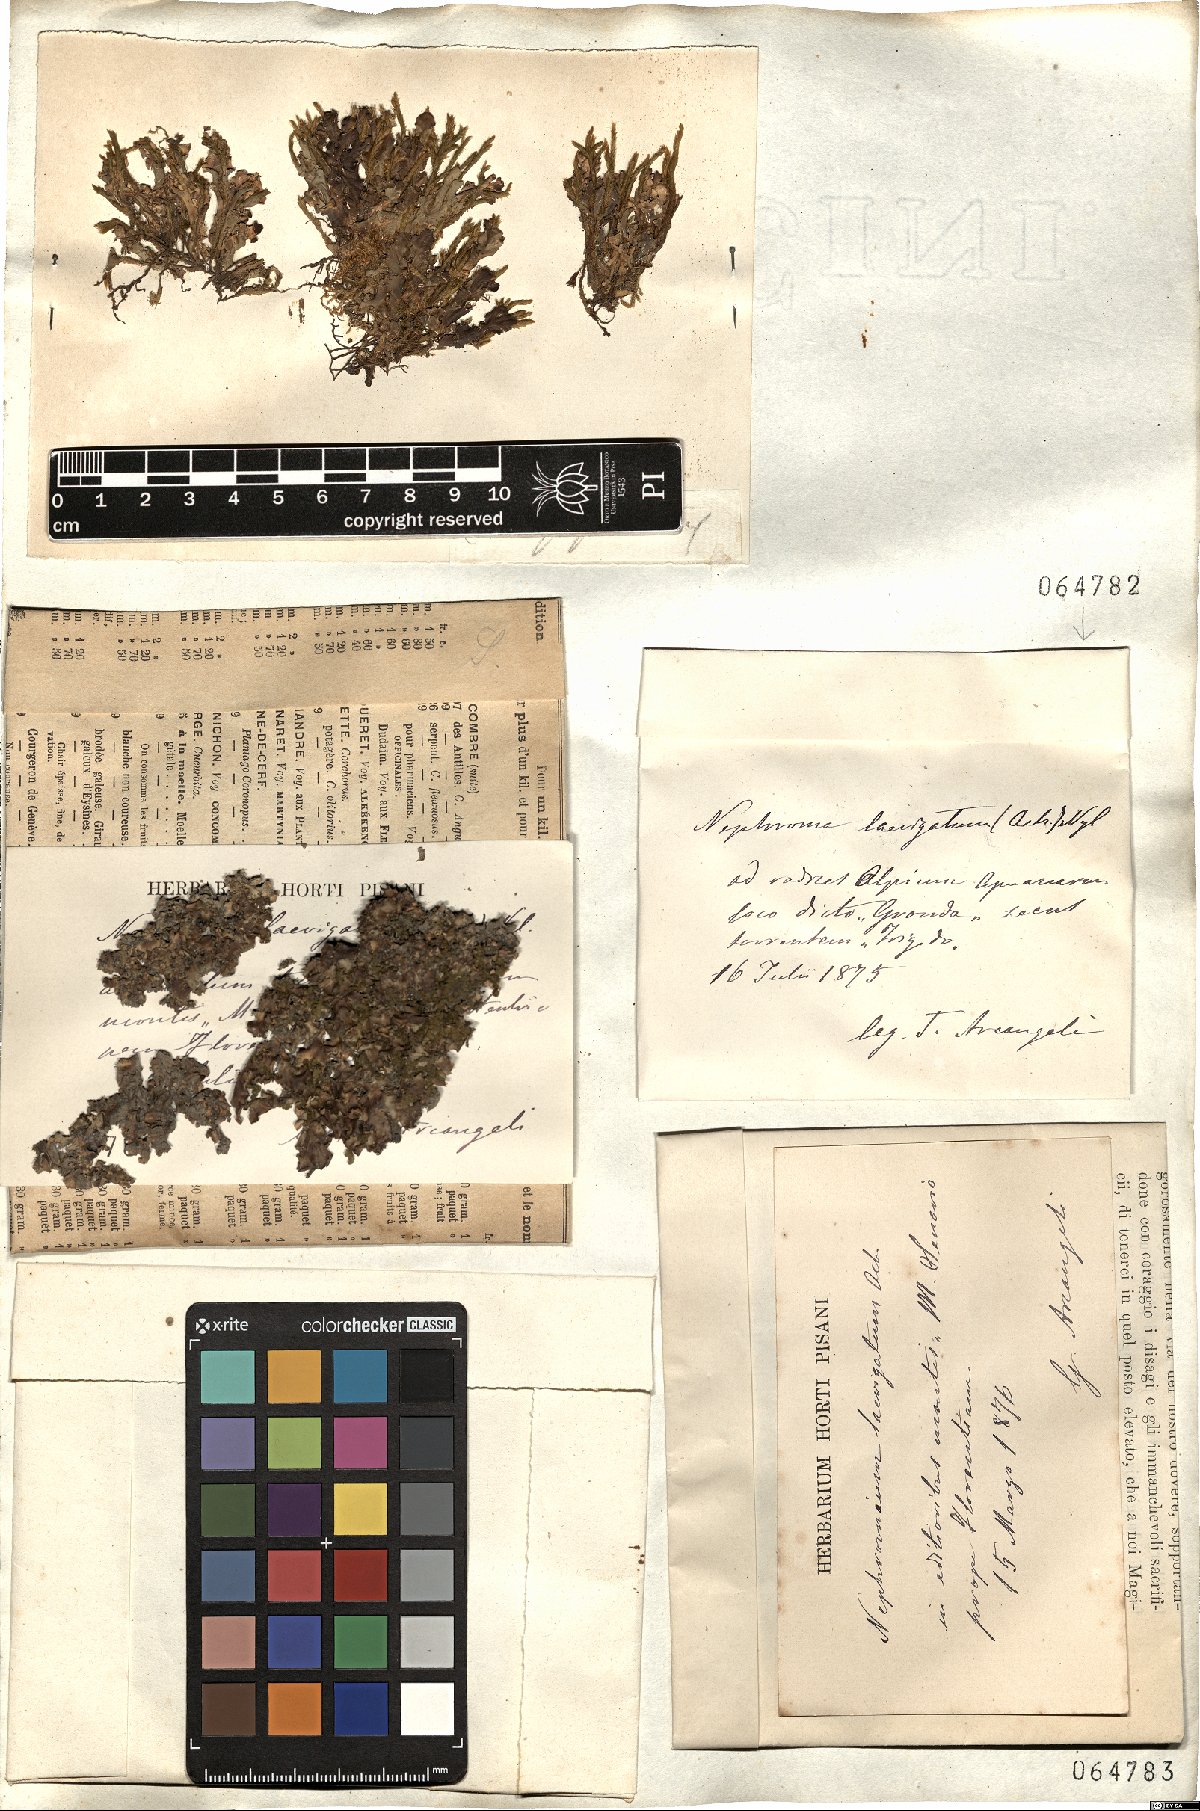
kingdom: Fungi
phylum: Ascomycota
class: Lecanoromycetes
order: Peltigerales
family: Nephromataceae
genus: Nephroma
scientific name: Nephroma laevigatum
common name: Mustard kidney lichen
